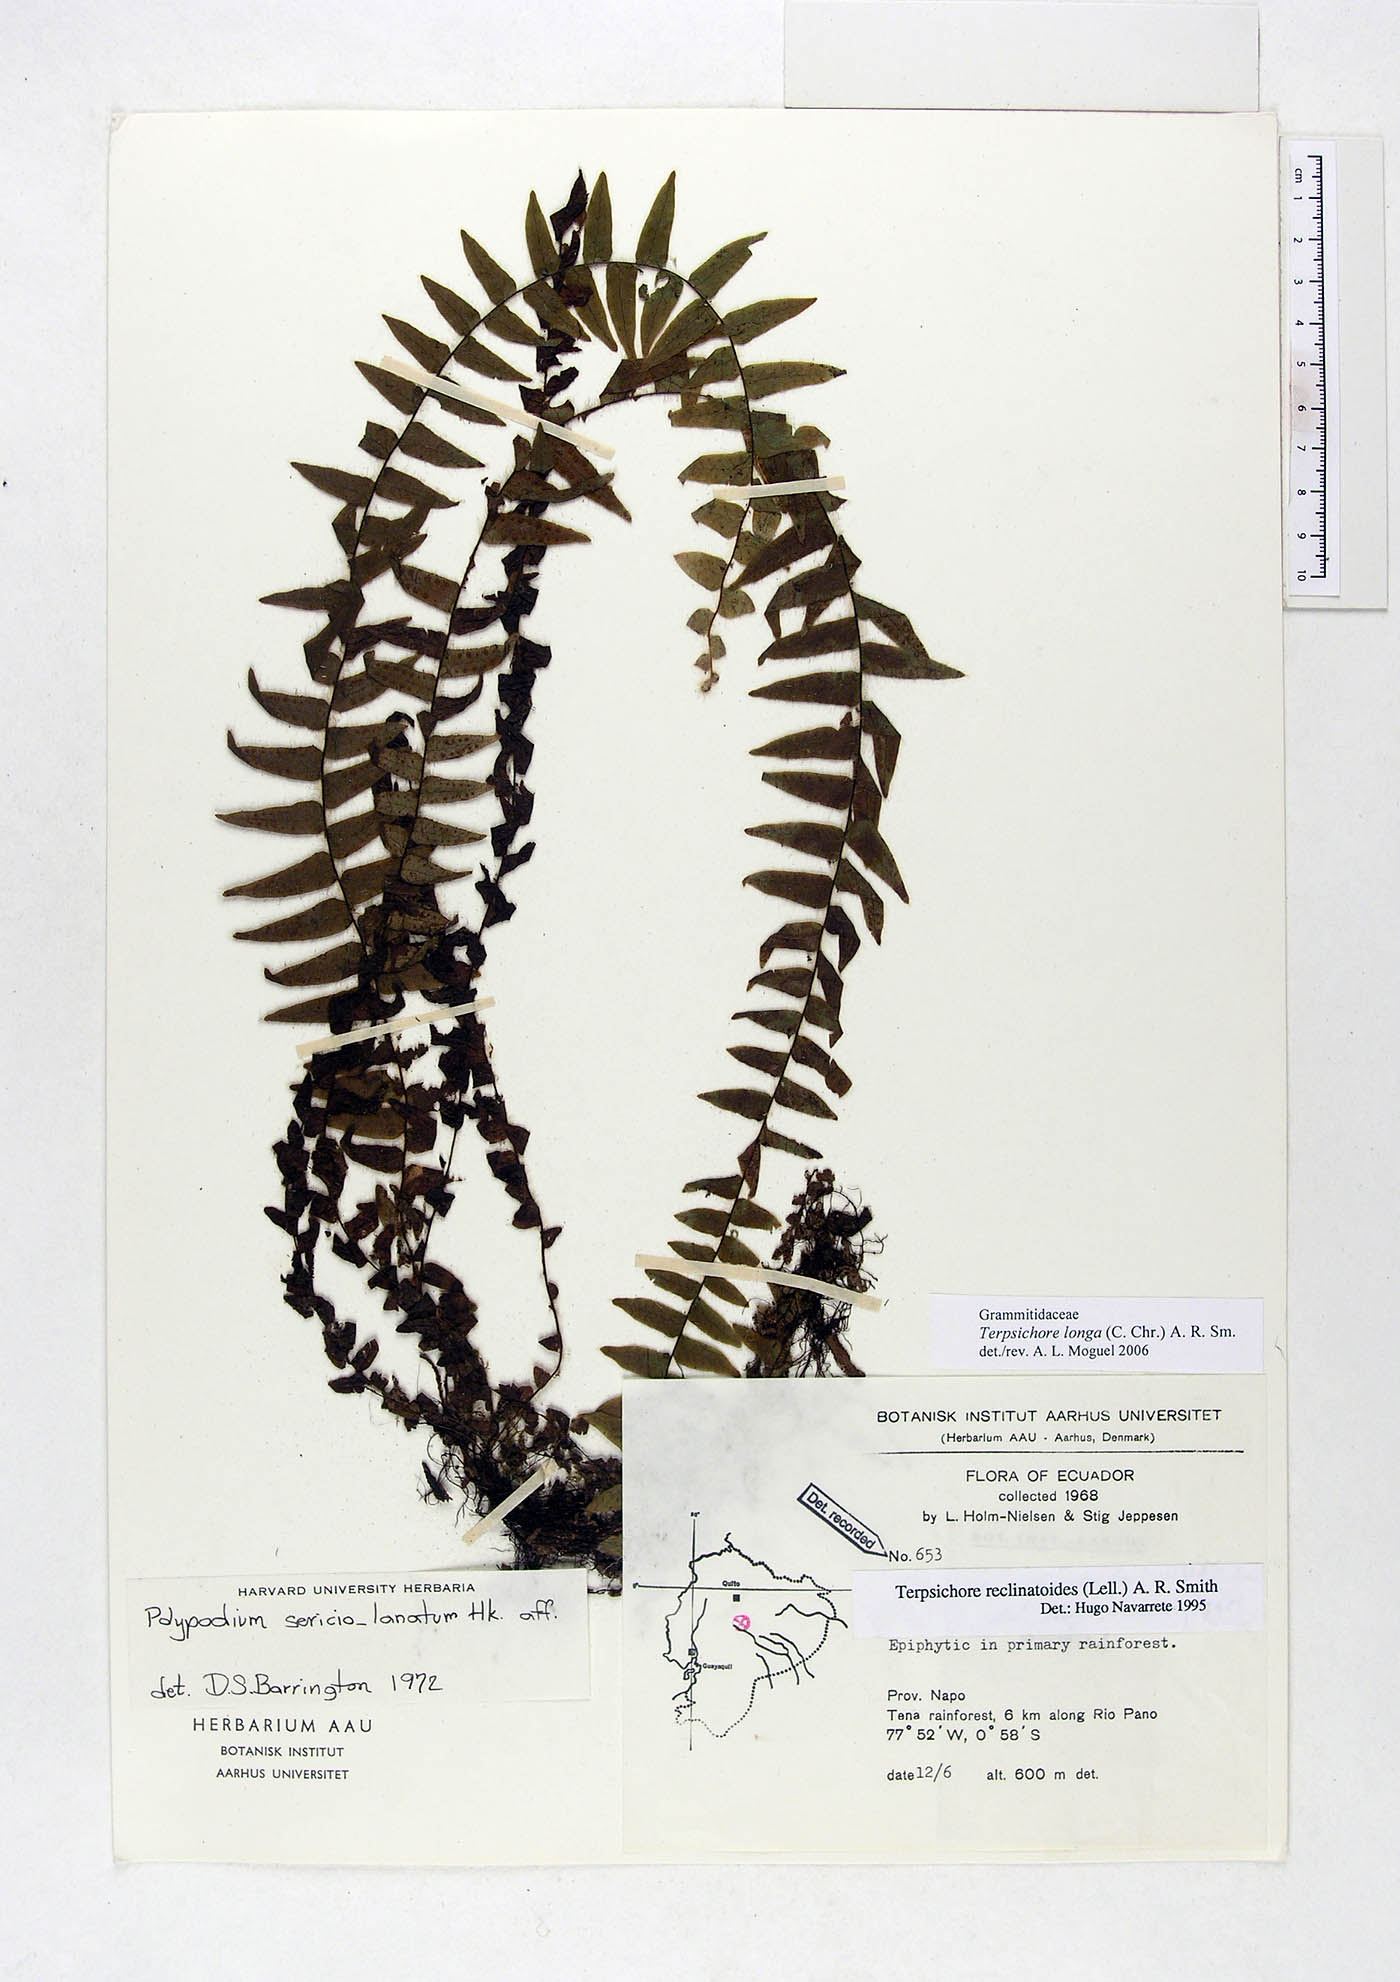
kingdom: Plantae
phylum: Tracheophyta
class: Polypodiopsida
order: Polypodiales
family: Polypodiaceae
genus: Alansmia
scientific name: Alansmia longa
